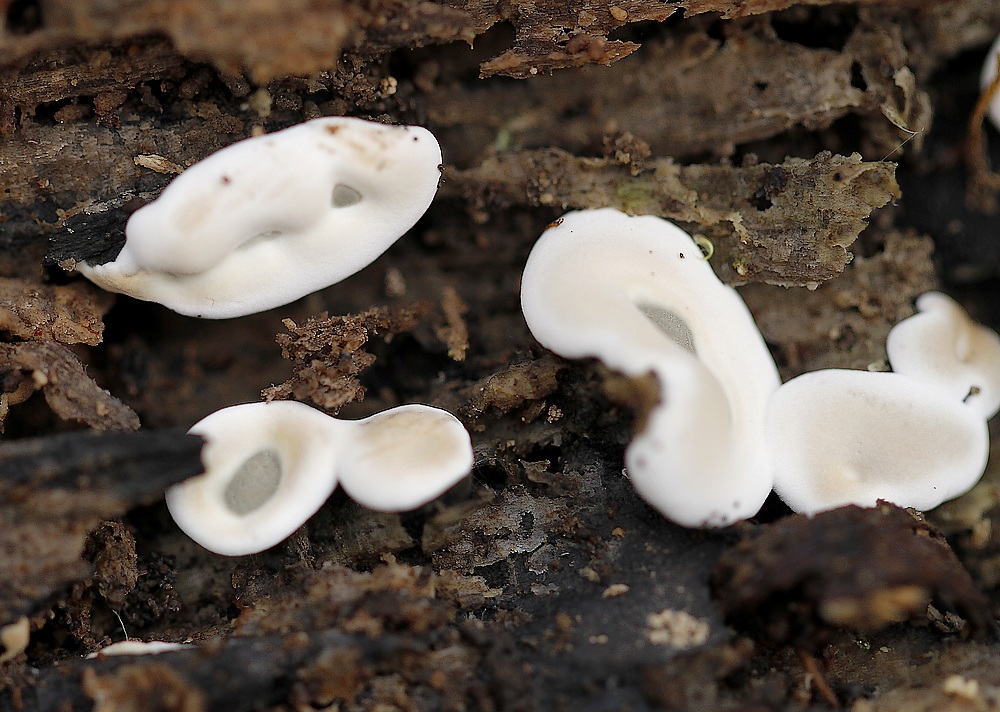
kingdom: Fungi
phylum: Ascomycota
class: Sordariomycetes
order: Xylariales
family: Xylariaceae
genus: Kretzschmaria
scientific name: Kretzschmaria deusta
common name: stor kulsvamp
